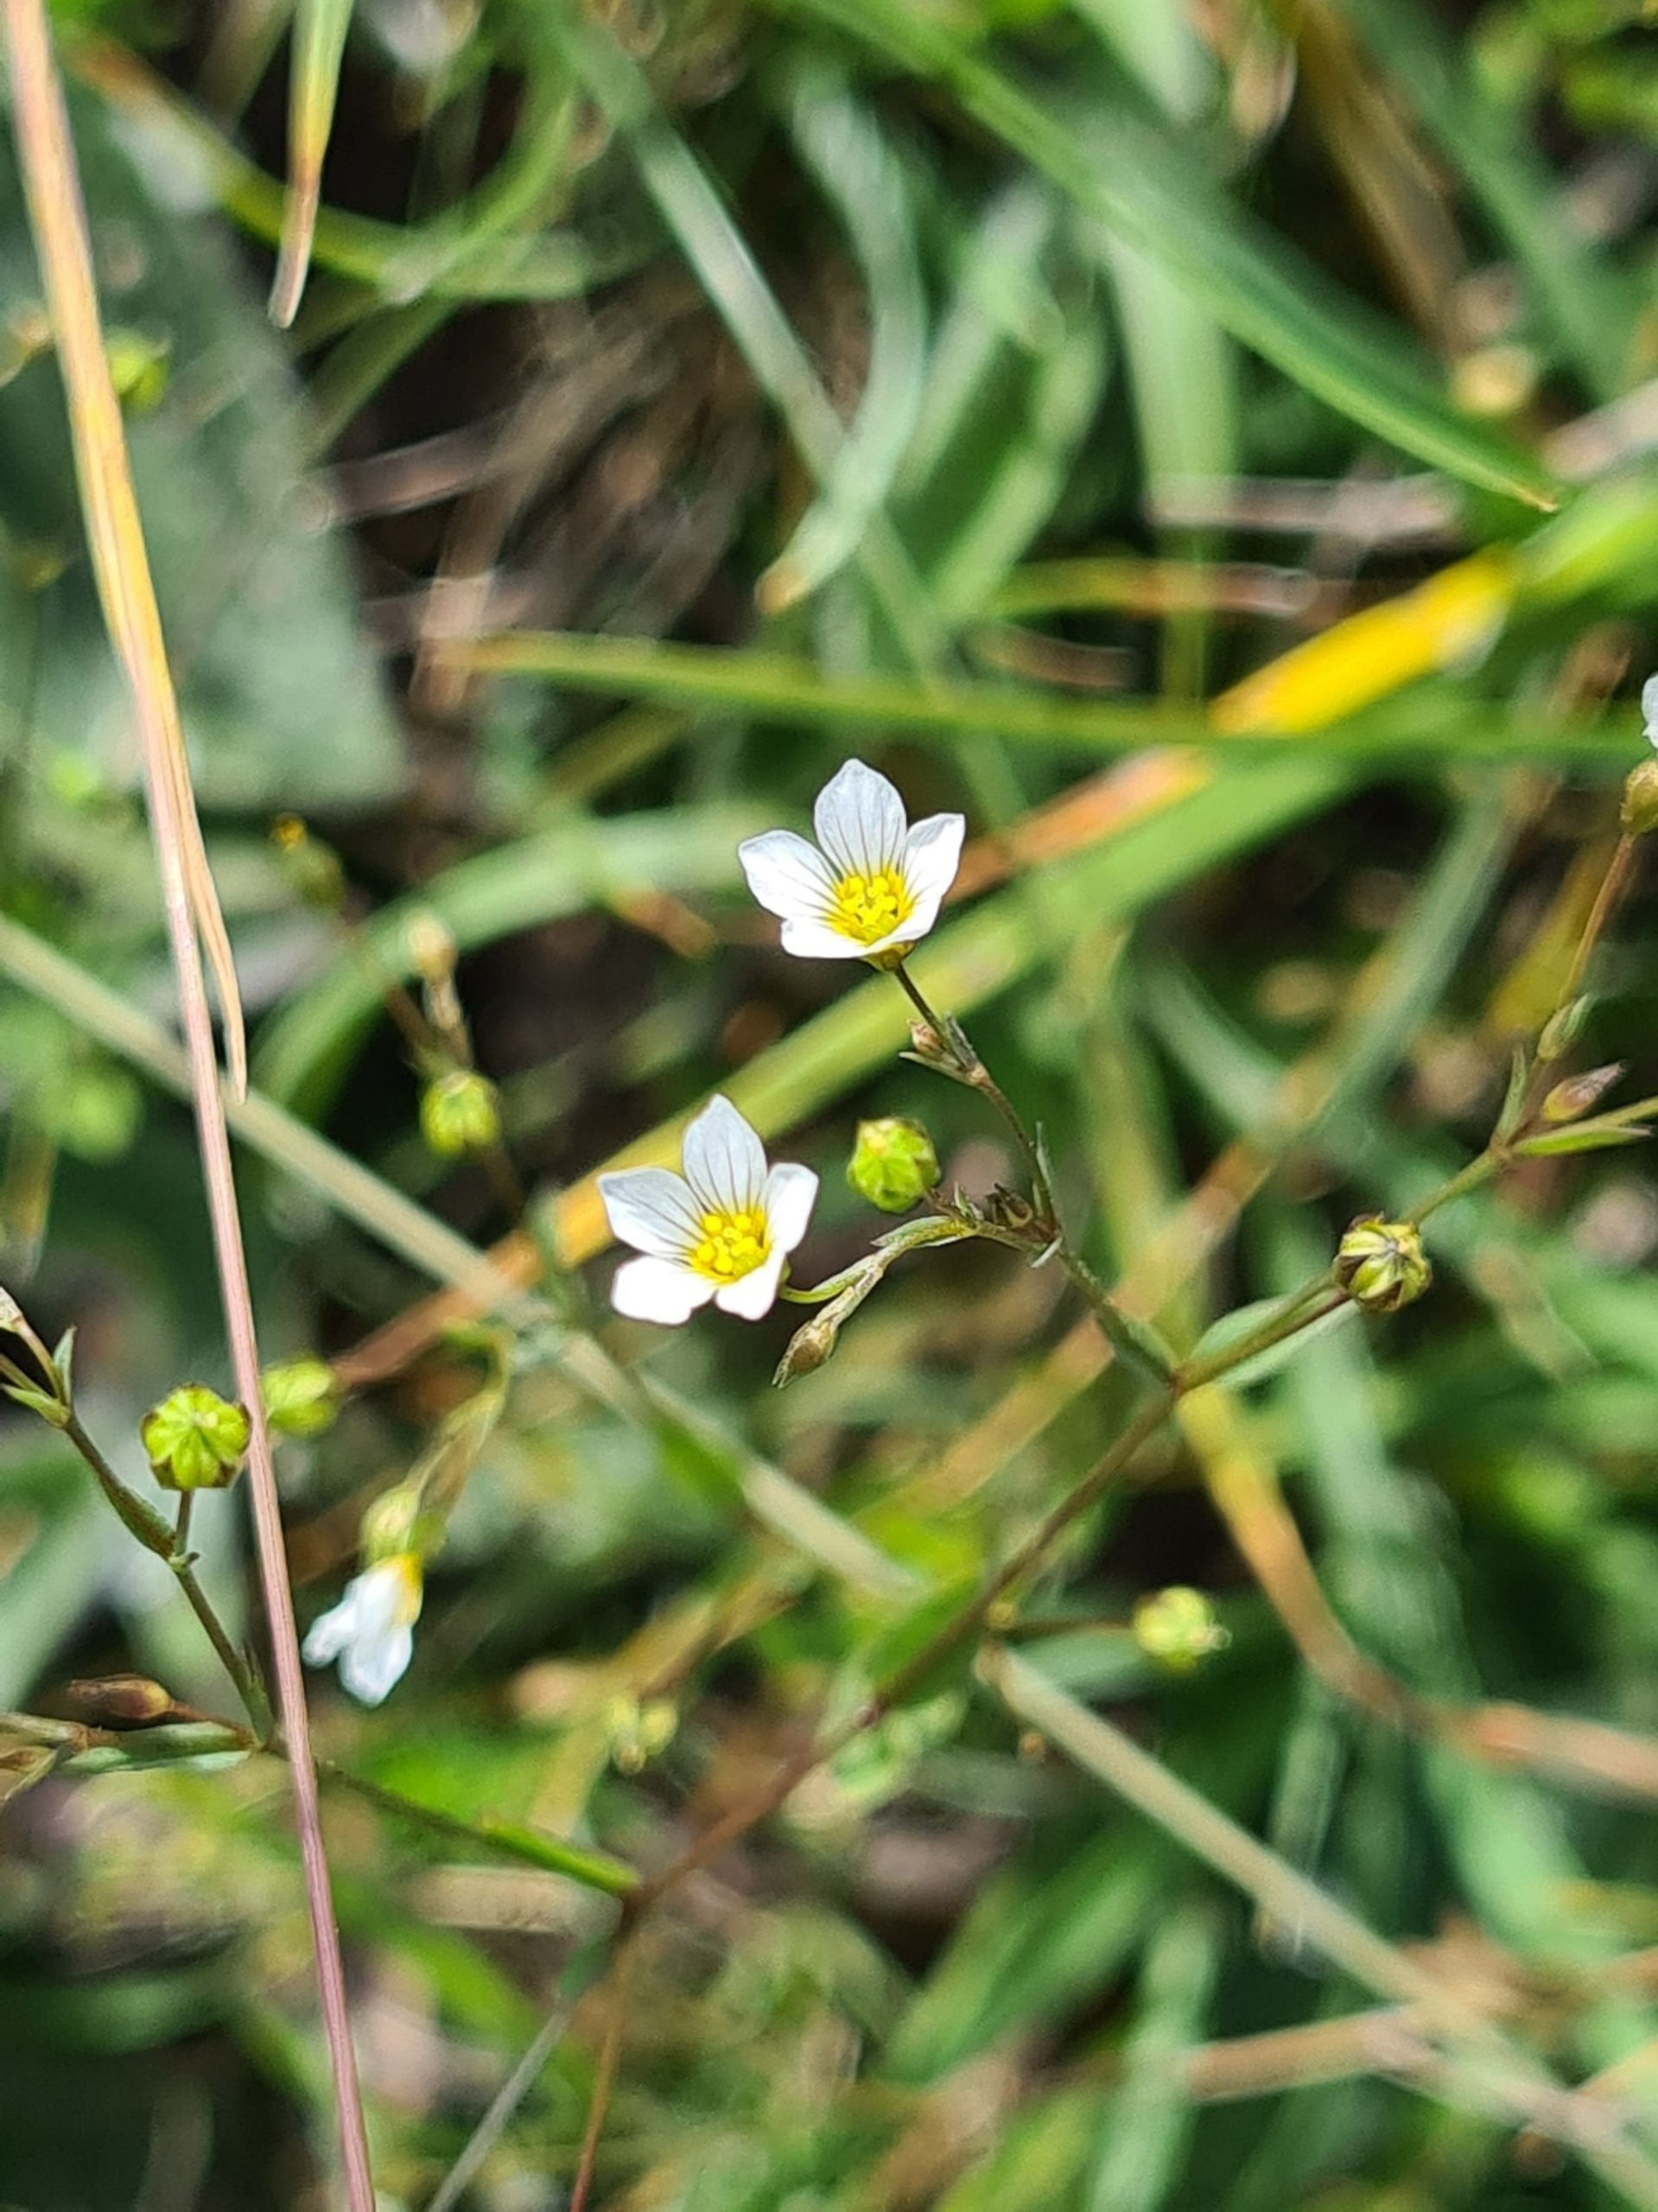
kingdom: Plantae
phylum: Tracheophyta
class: Magnoliopsida
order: Malpighiales
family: Linaceae
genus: Linum
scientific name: Linum catharticum
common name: Vild hør
